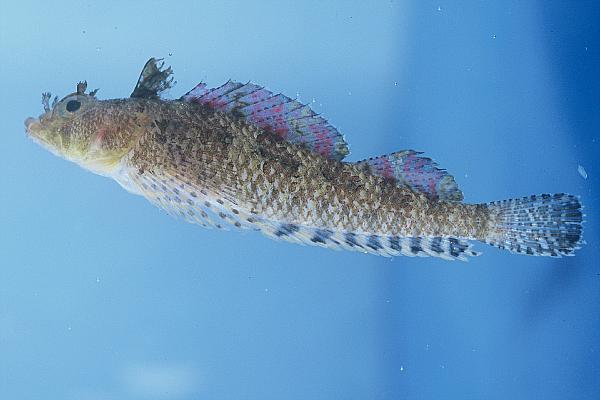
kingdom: Animalia
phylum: Chordata
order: Perciformes
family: Labridae
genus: Bodianus
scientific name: Bodianus speciosus
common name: Blackbar hogfish
